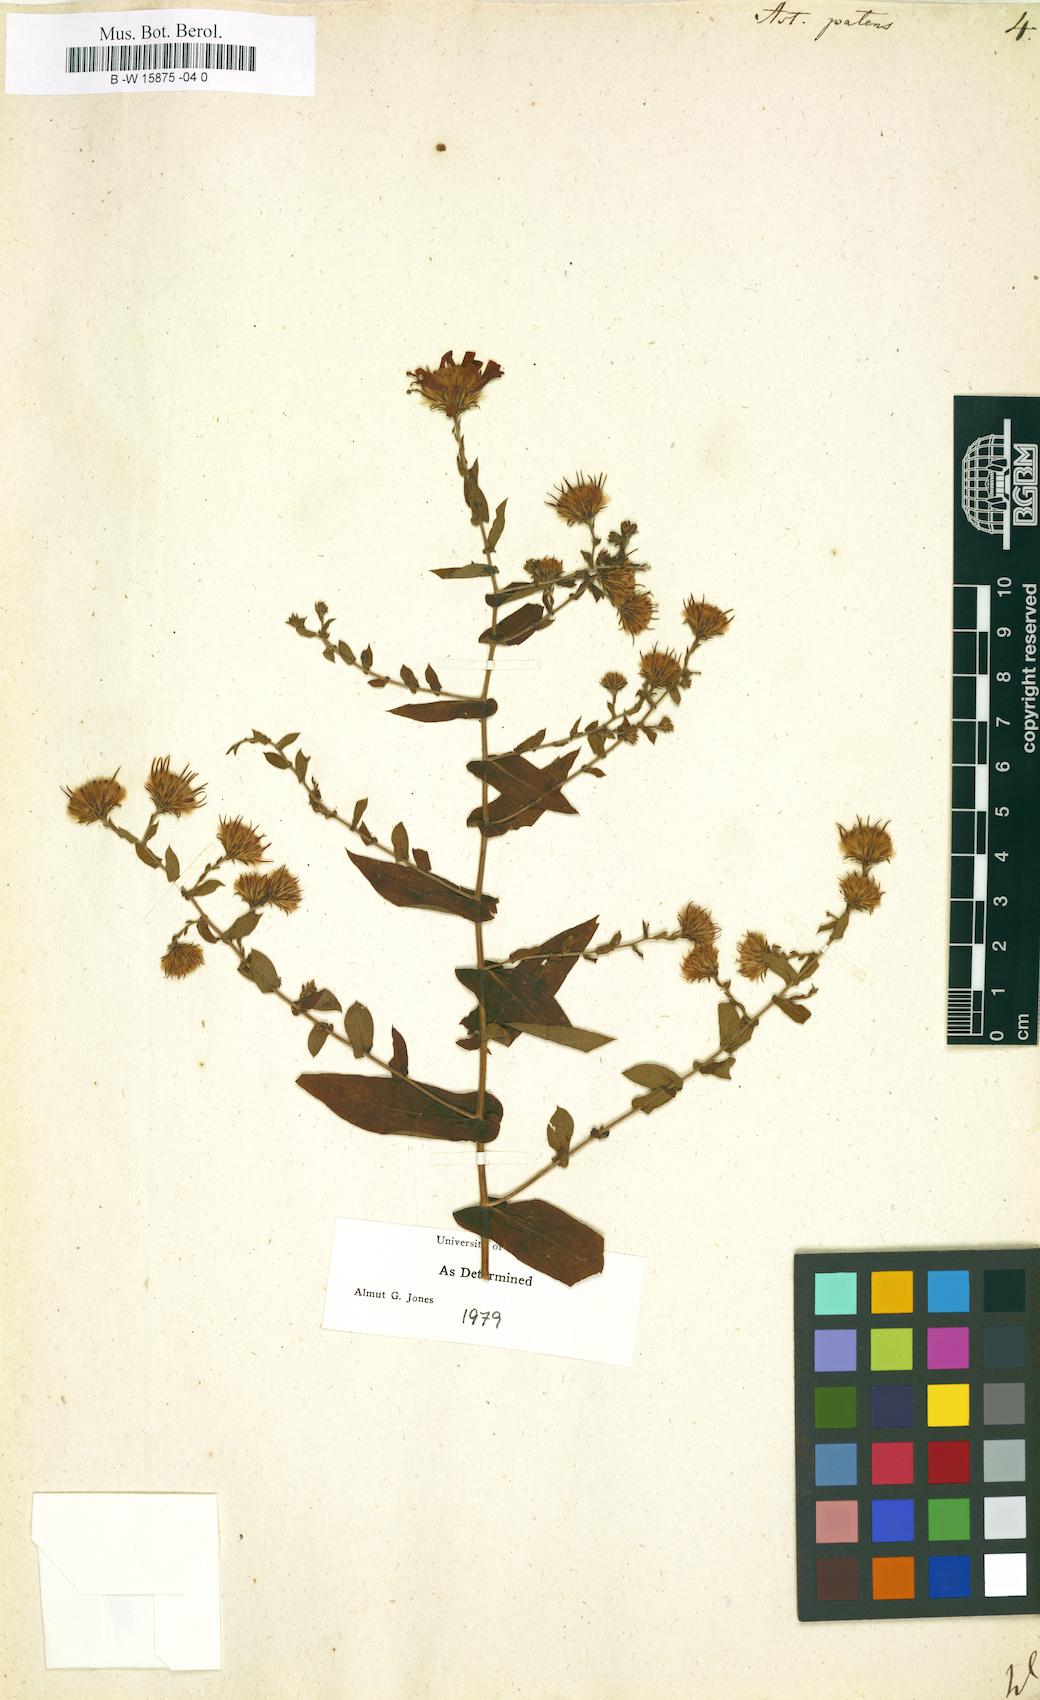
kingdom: Plantae
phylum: Tracheophyta
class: Magnoliopsida
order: Asterales
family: Asteraceae
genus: Aster
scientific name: Aster patens
